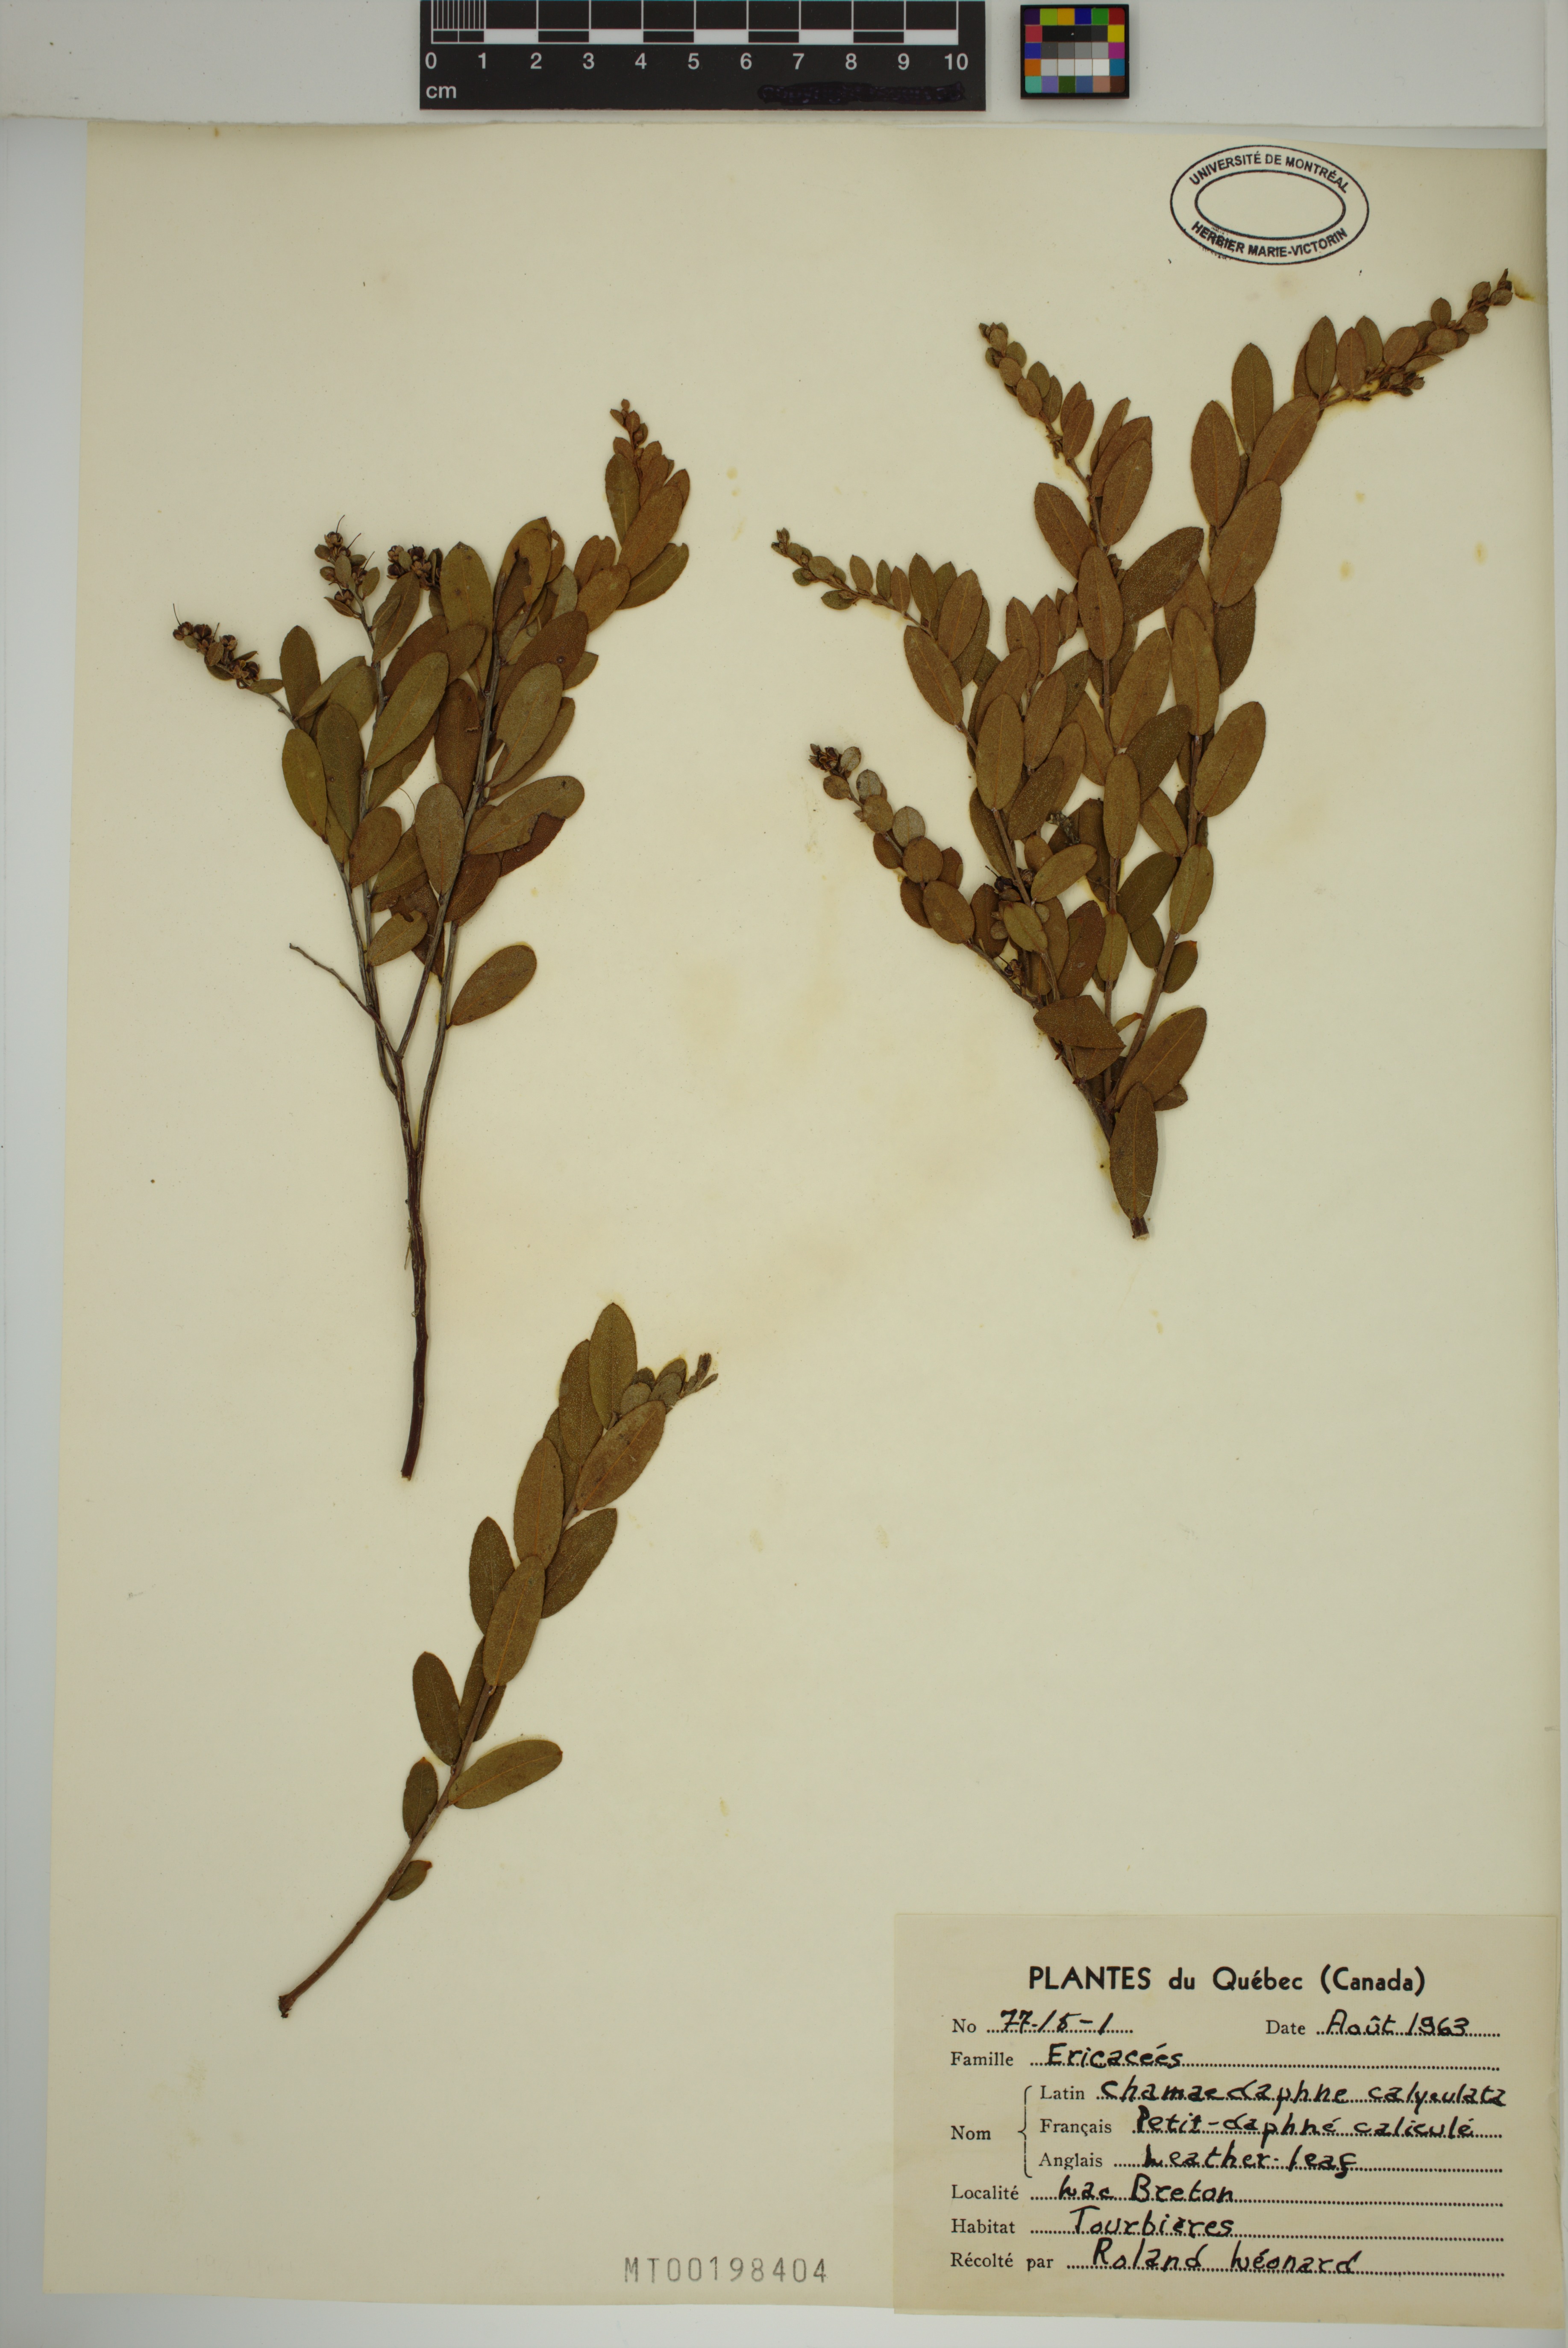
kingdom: Plantae
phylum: Tracheophyta
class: Magnoliopsida
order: Ericales
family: Ericaceae
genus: Chamaedaphne
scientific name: Chamaedaphne calyculata
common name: Leatherleaf
